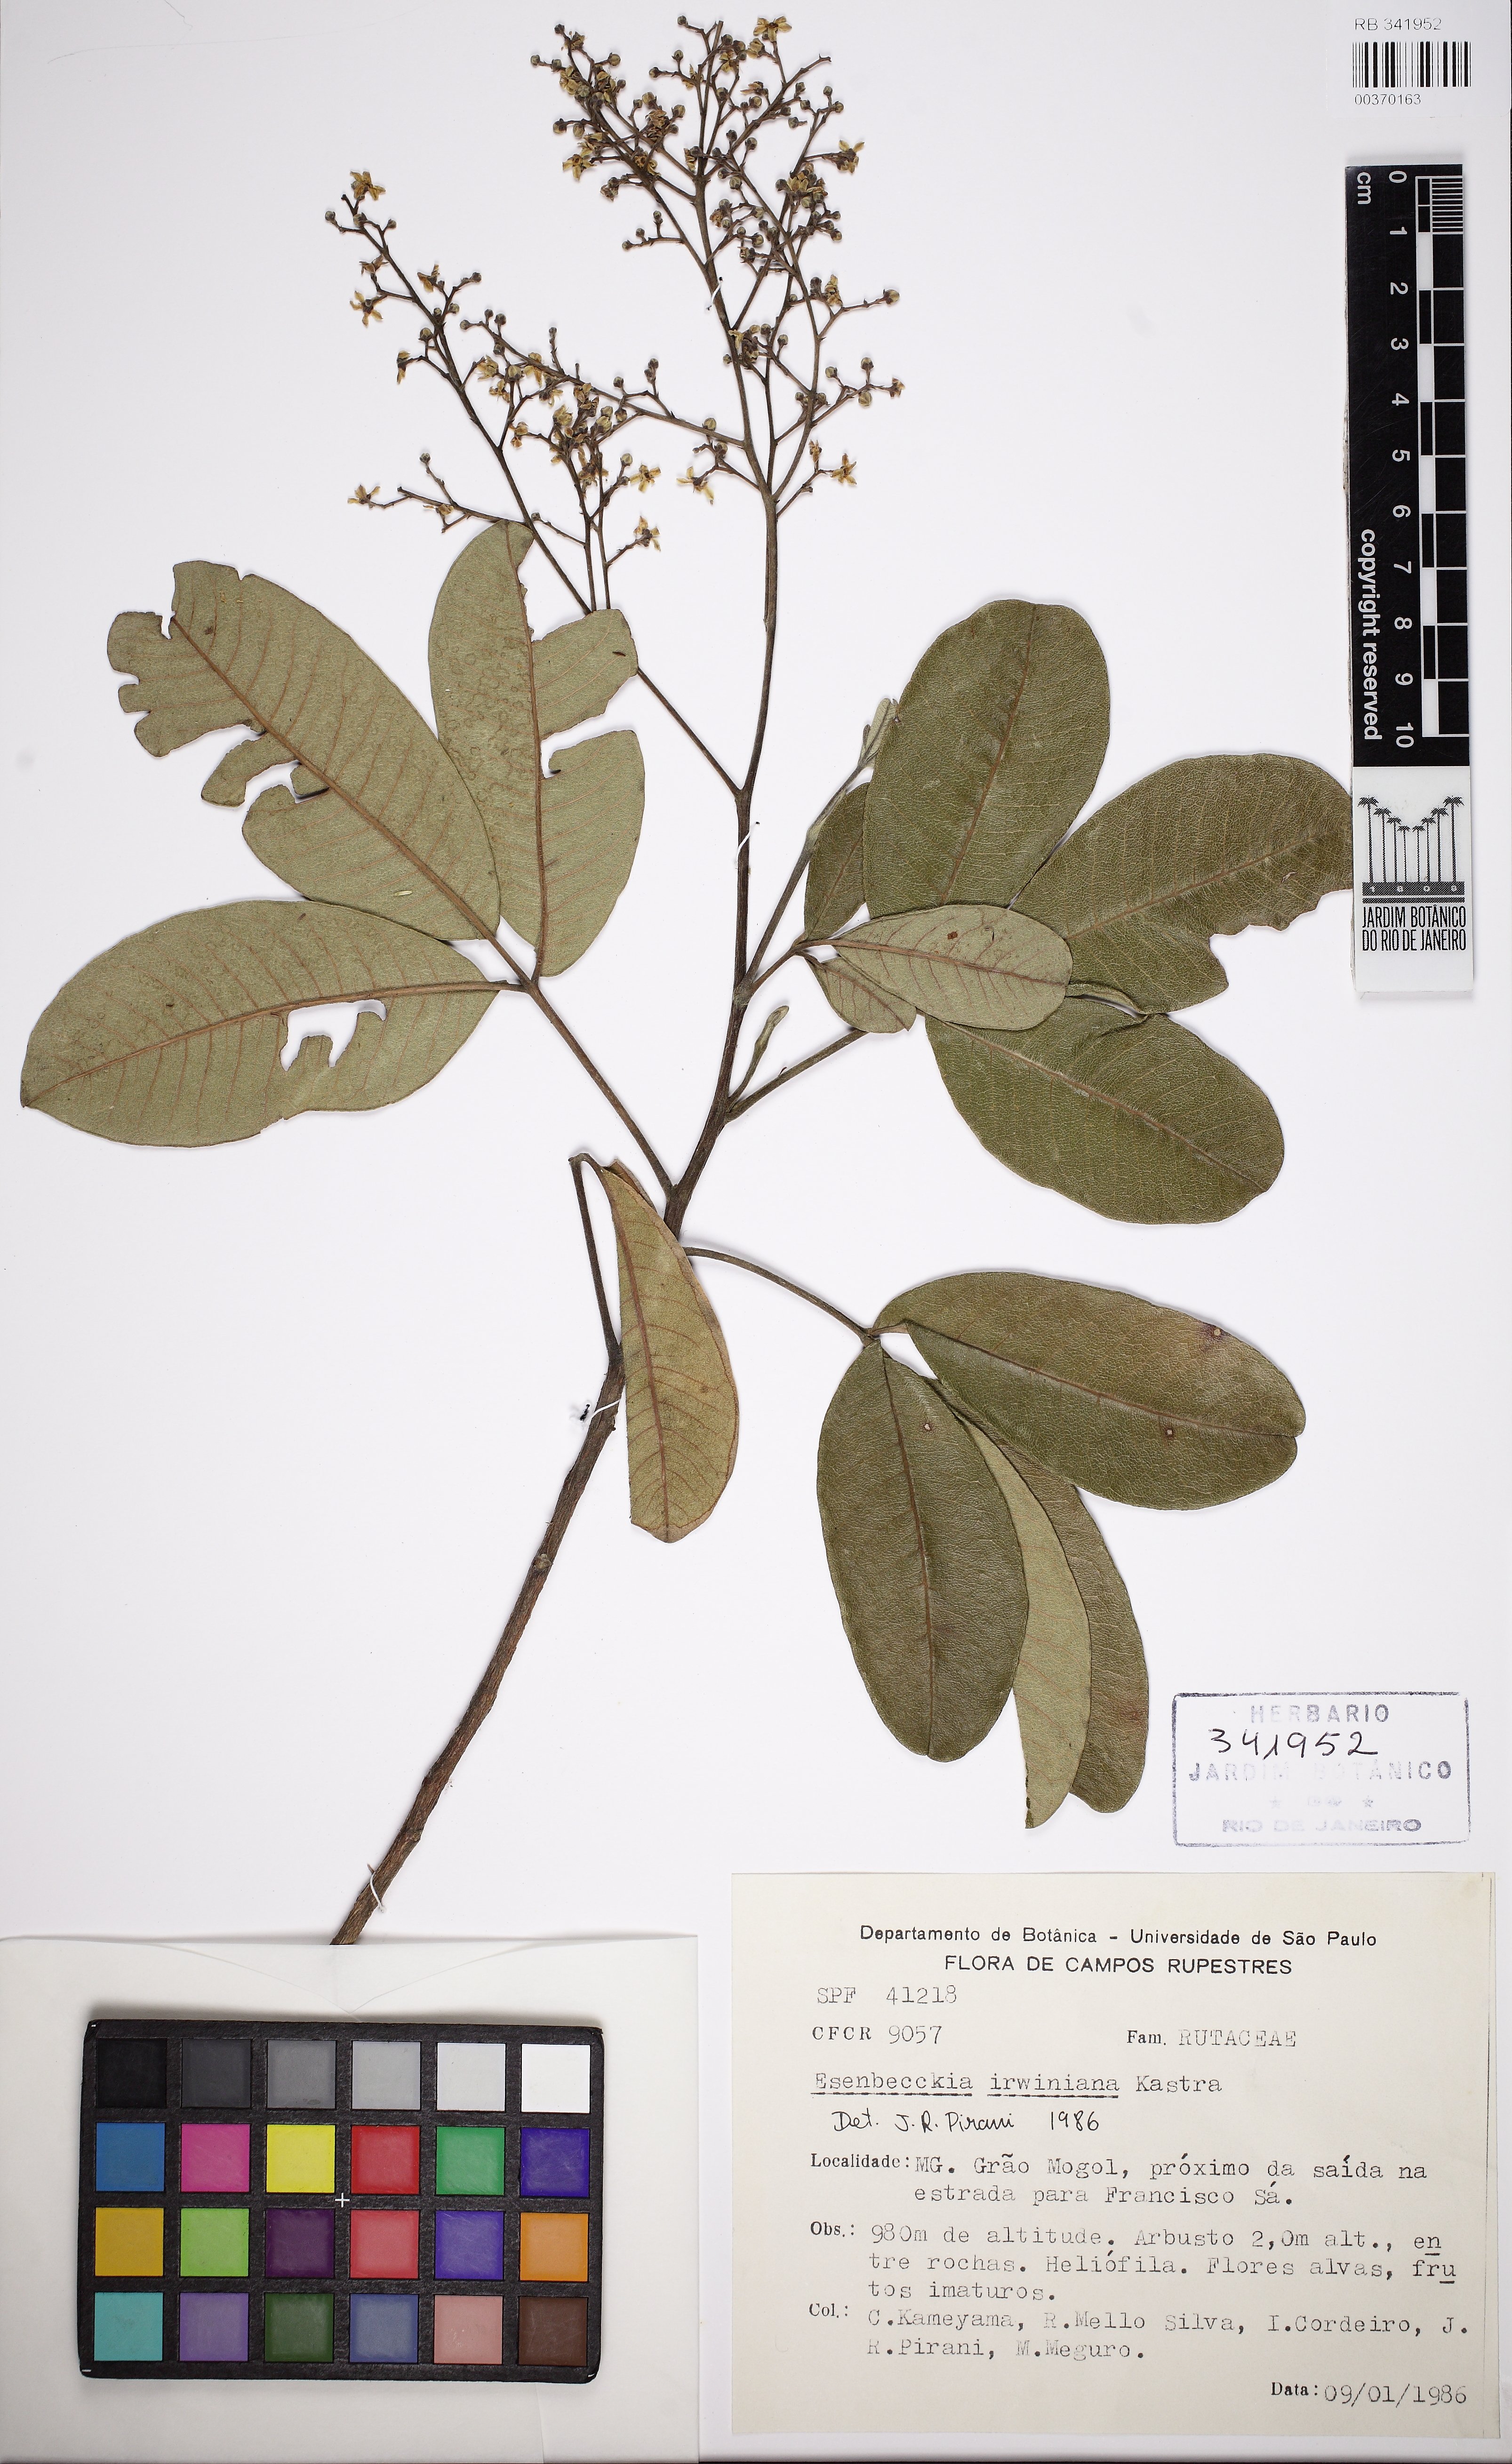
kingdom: Plantae
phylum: Tracheophyta
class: Magnoliopsida
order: Sapindales
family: Rutaceae
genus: Esenbeckia
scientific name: Esenbeckia irwiniana
